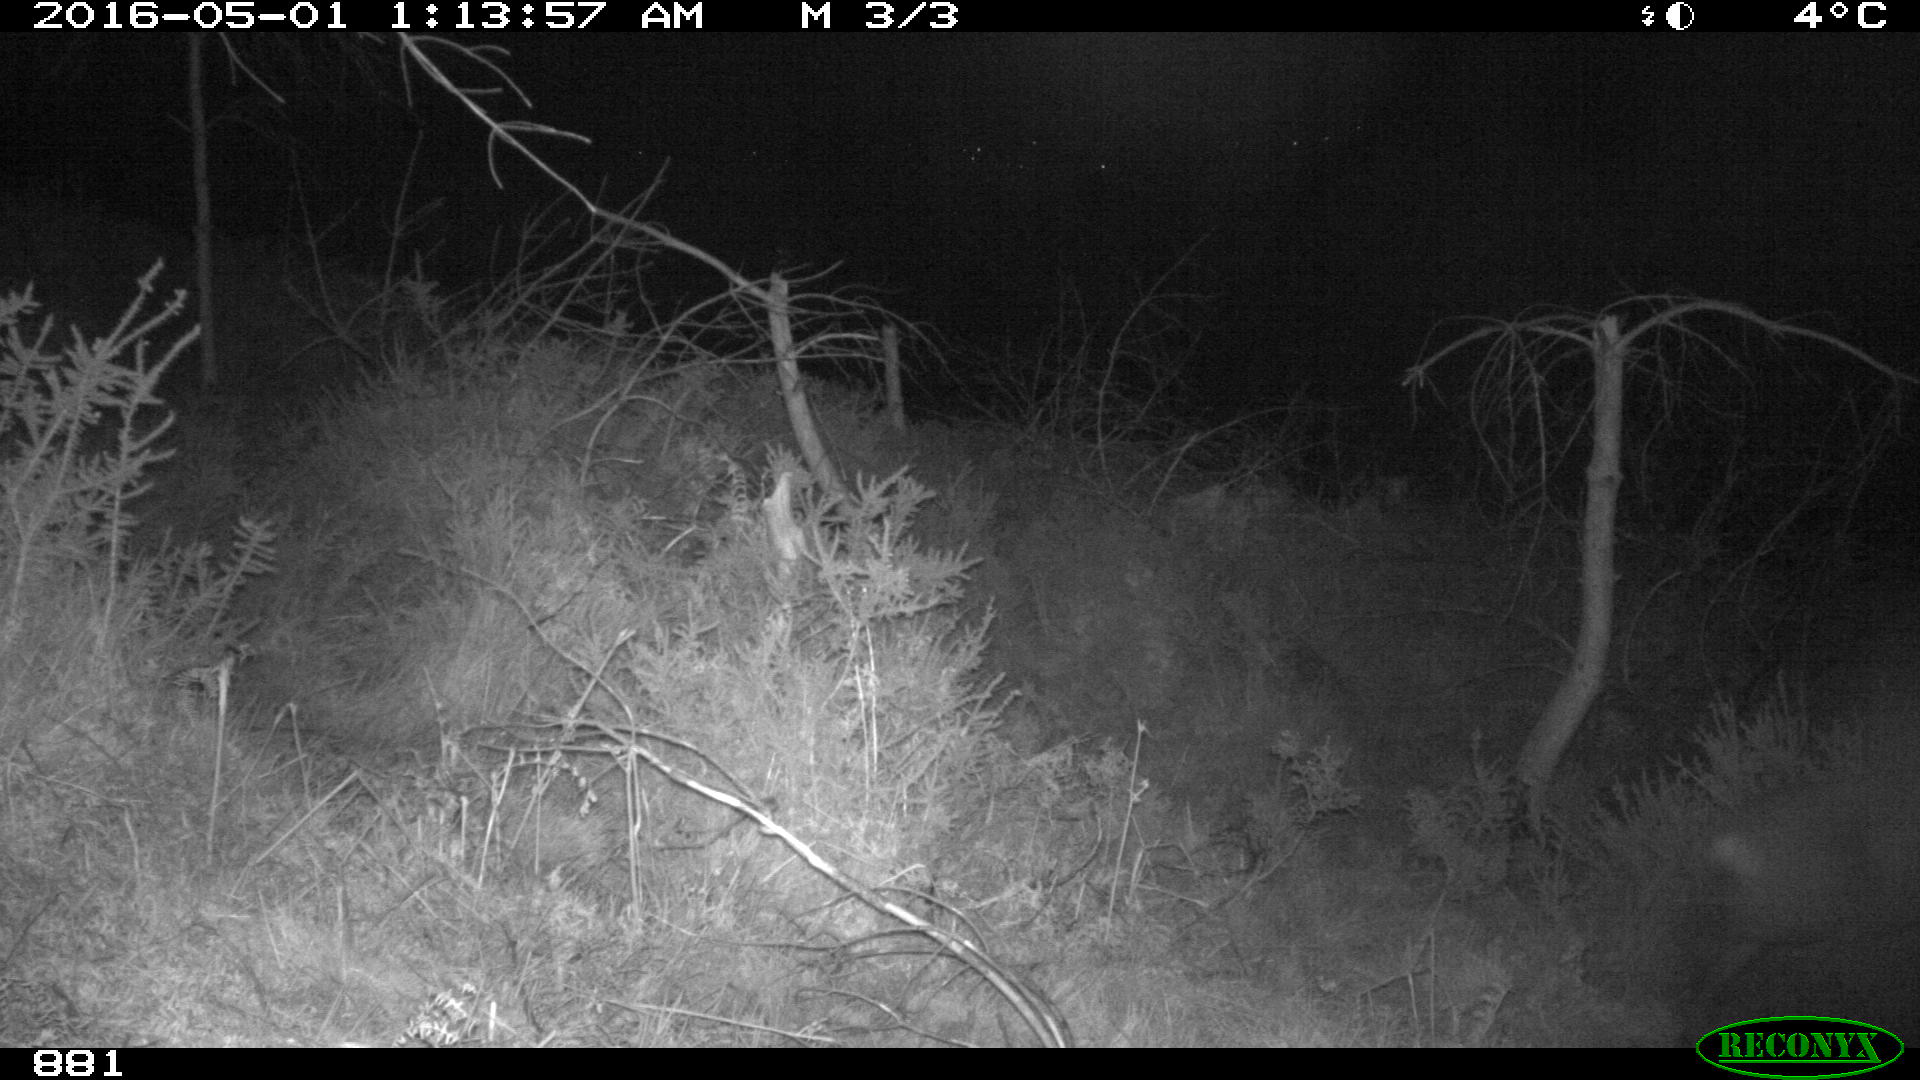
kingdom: Animalia
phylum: Chordata
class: Mammalia
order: Artiodactyla
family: Cervidae
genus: Capreolus
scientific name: Capreolus capreolus
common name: Western roe deer
